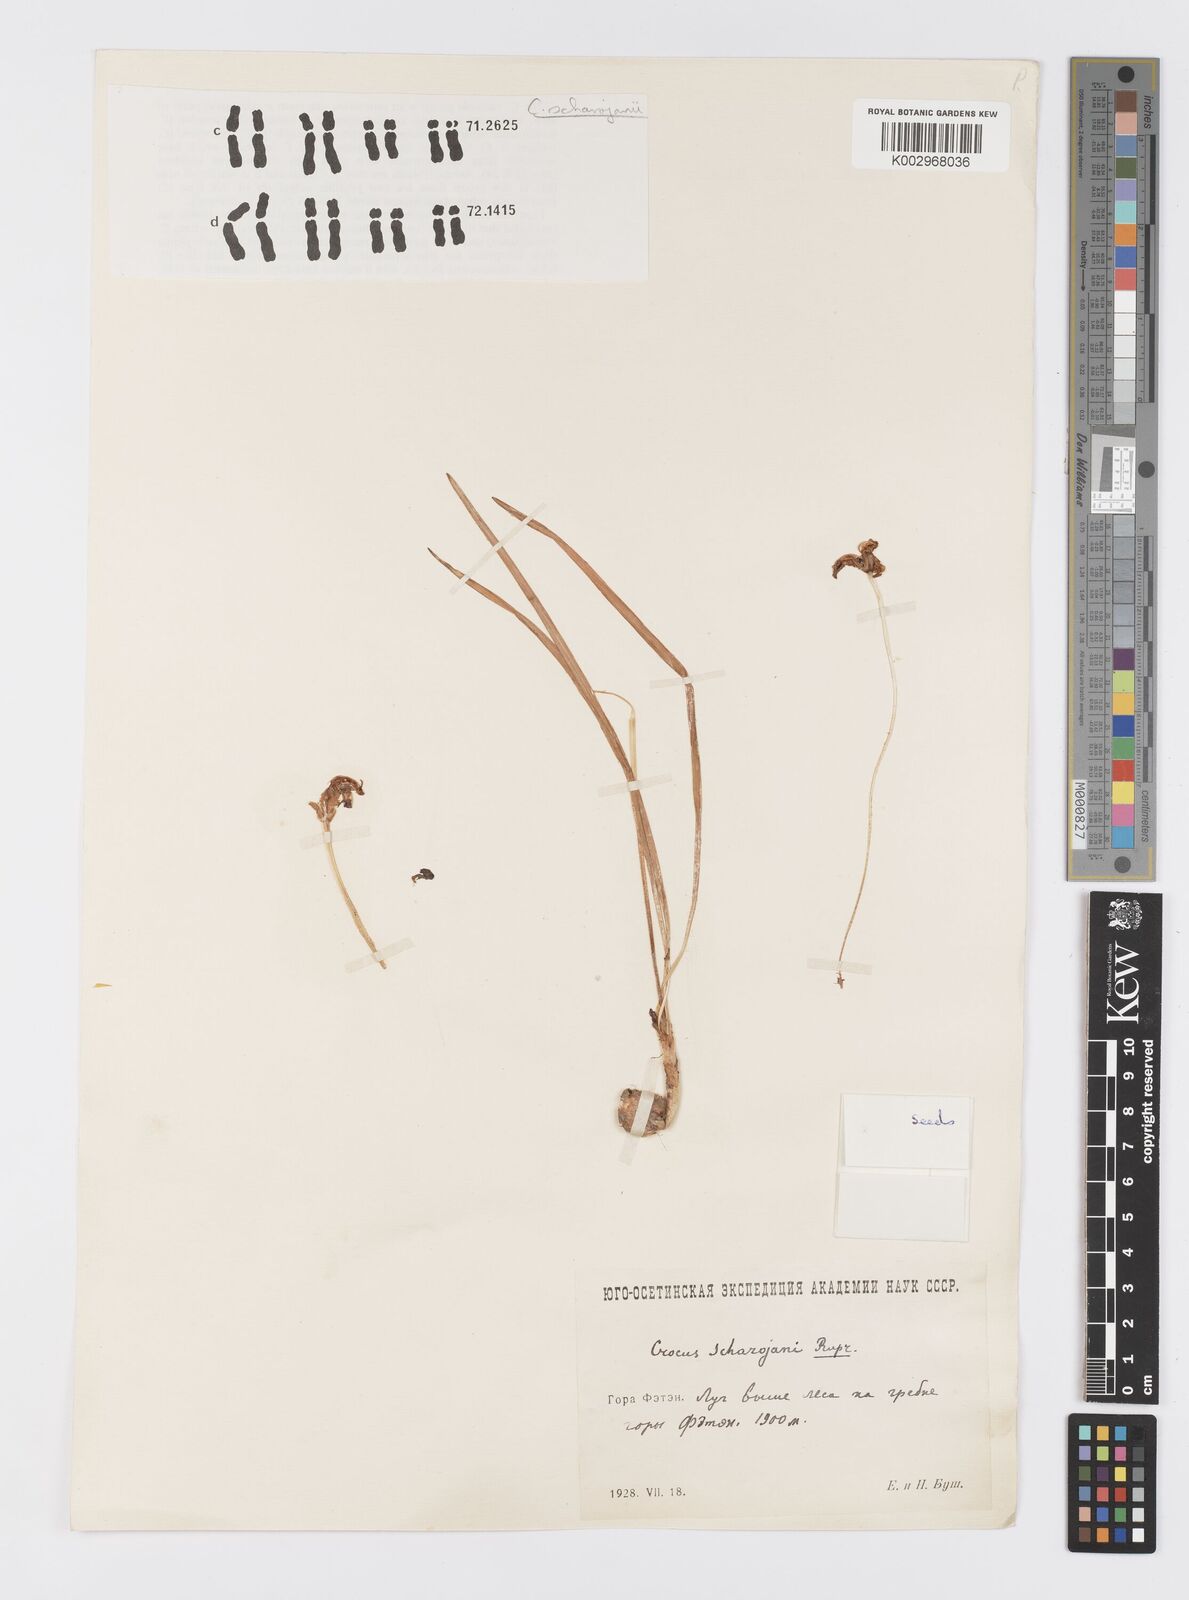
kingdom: Plantae
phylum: Tracheophyta
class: Liliopsida
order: Asparagales
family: Iridaceae
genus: Crocus
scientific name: Crocus lazicus
